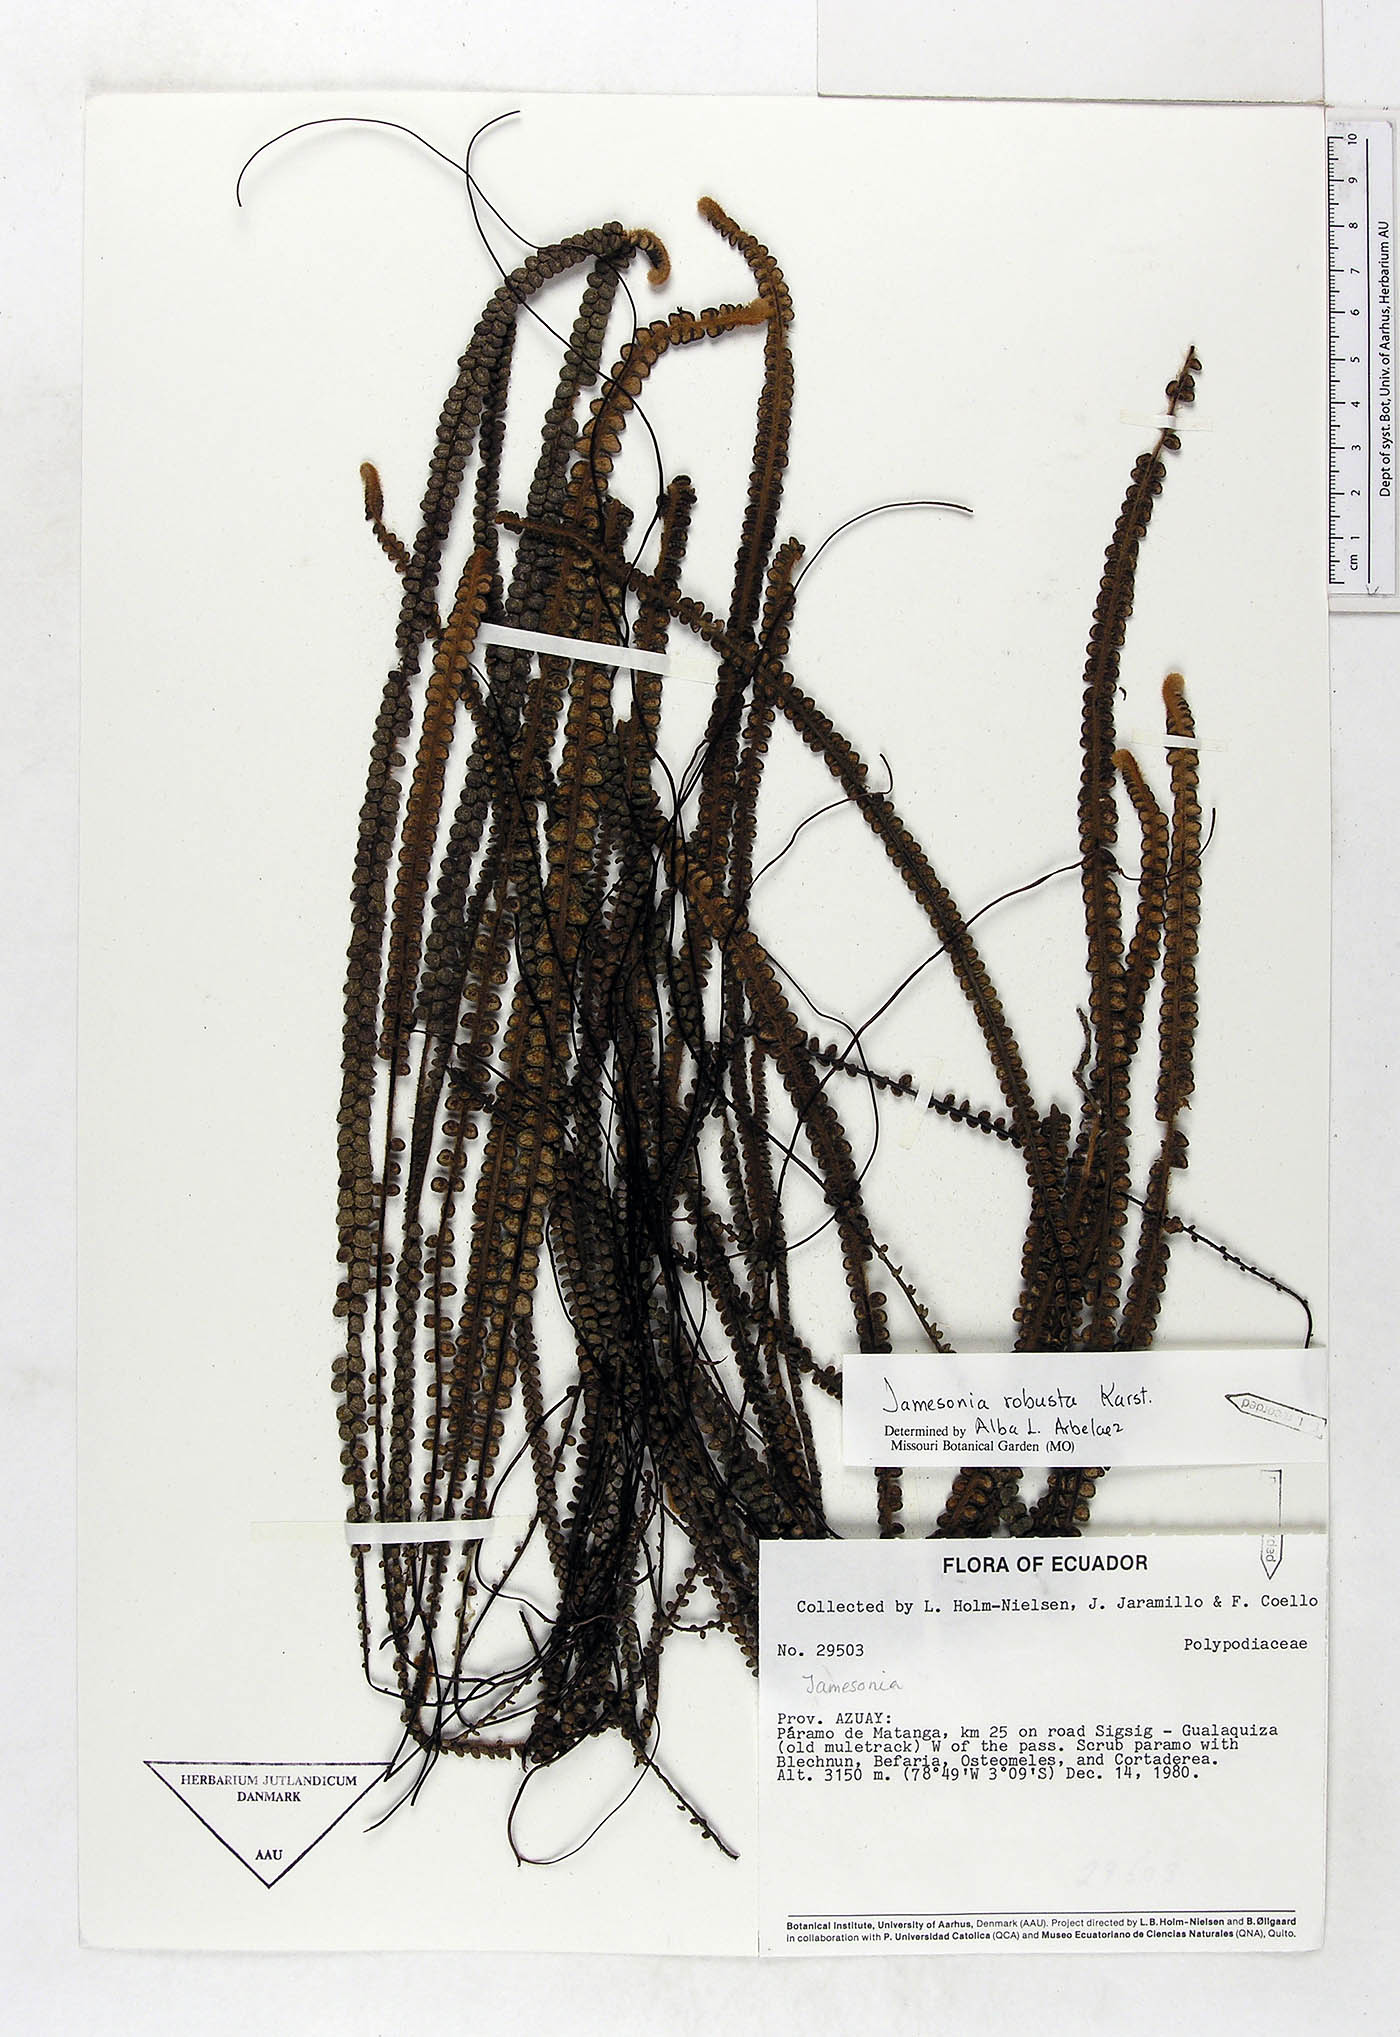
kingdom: Plantae
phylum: Tracheophyta
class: Polypodiopsida
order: Polypodiales
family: Pteridaceae
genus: Jamesonia
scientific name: Jamesonia robusta
